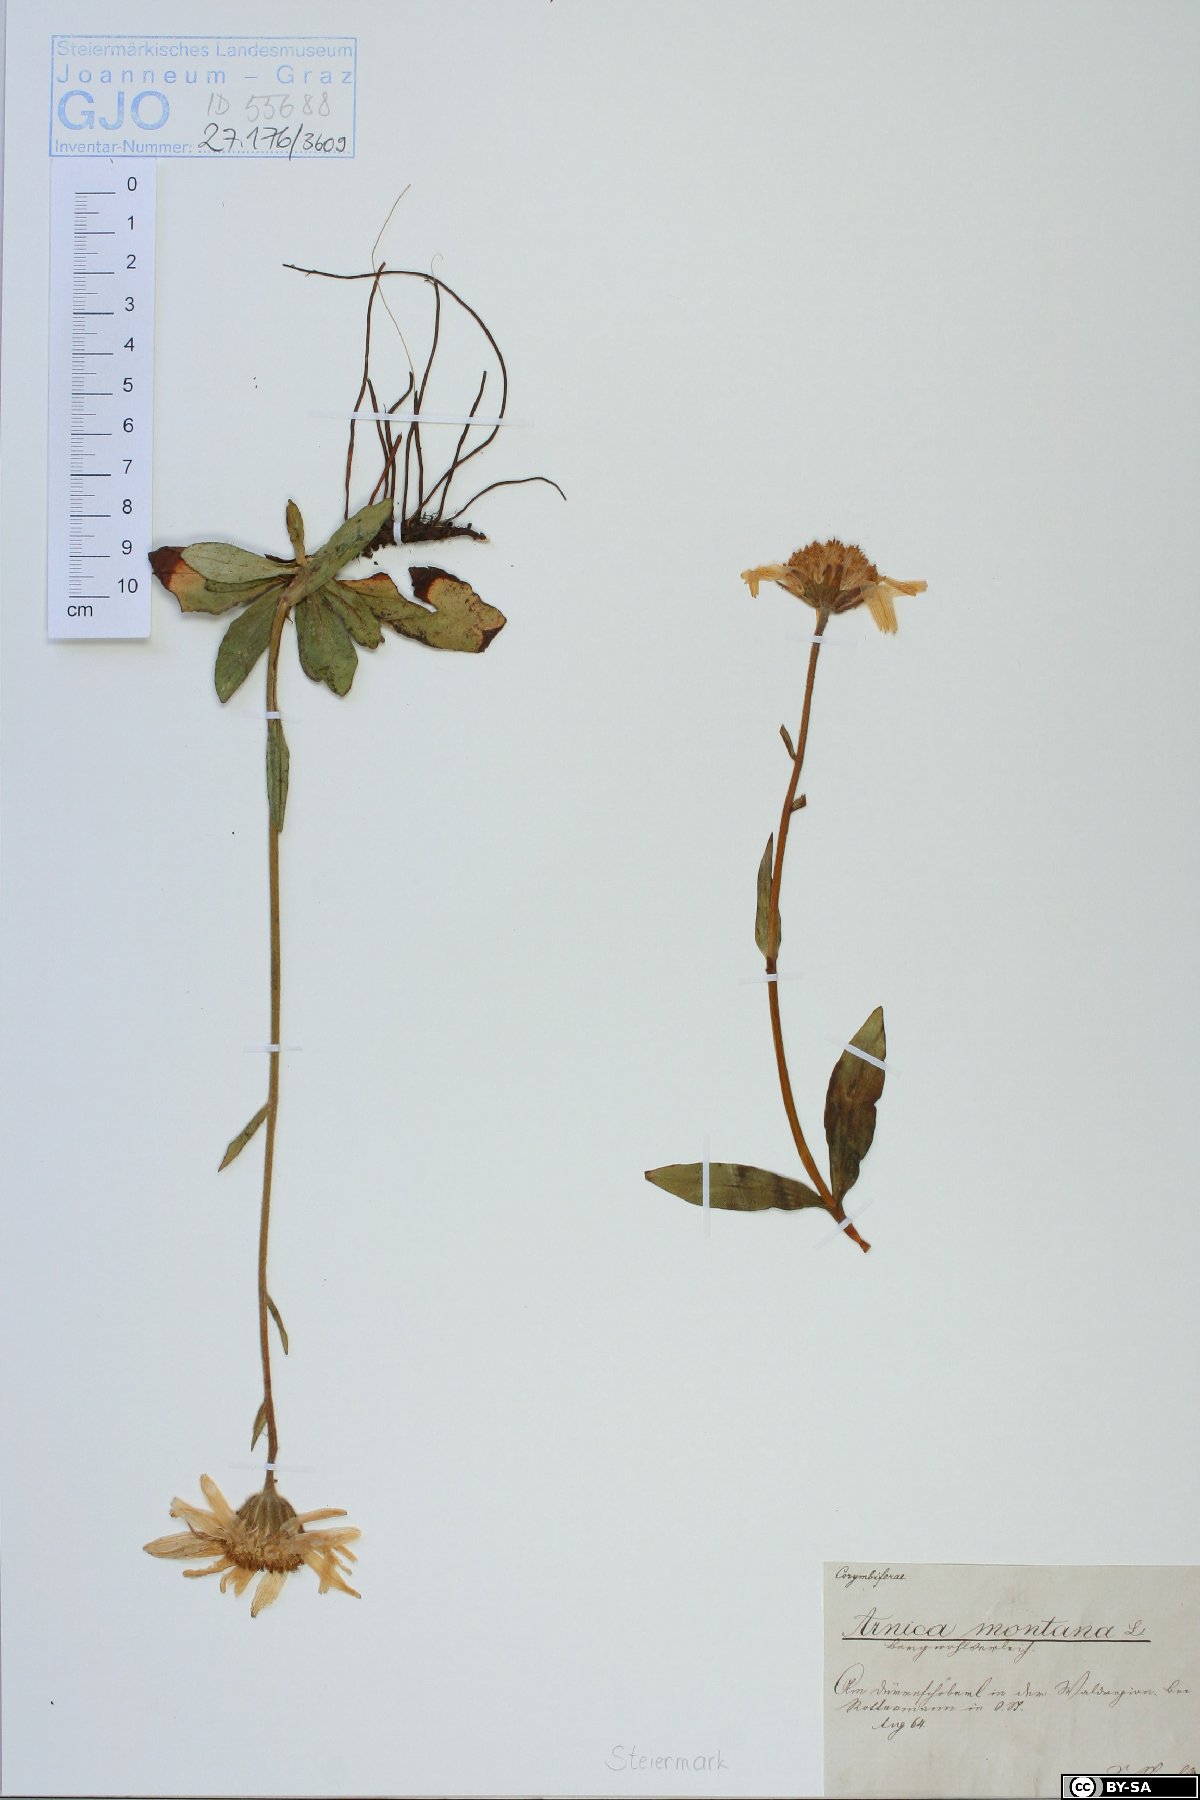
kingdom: Plantae
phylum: Tracheophyta
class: Magnoliopsida
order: Asterales
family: Asteraceae
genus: Arnica
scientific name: Arnica montana
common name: Leopard's bane
